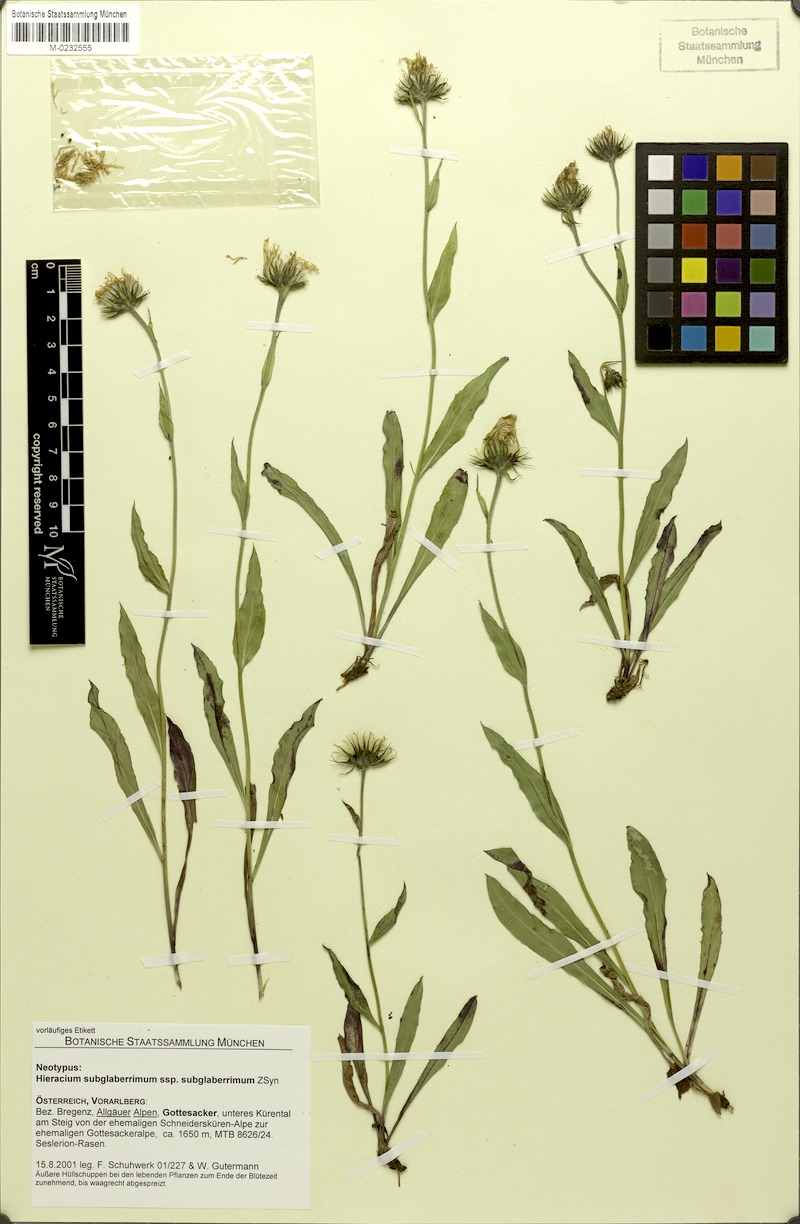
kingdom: Plantae
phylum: Tracheophyta
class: Magnoliopsida
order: Asterales
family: Asteraceae
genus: Hieracium
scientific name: Hieracium subglaberrimum
